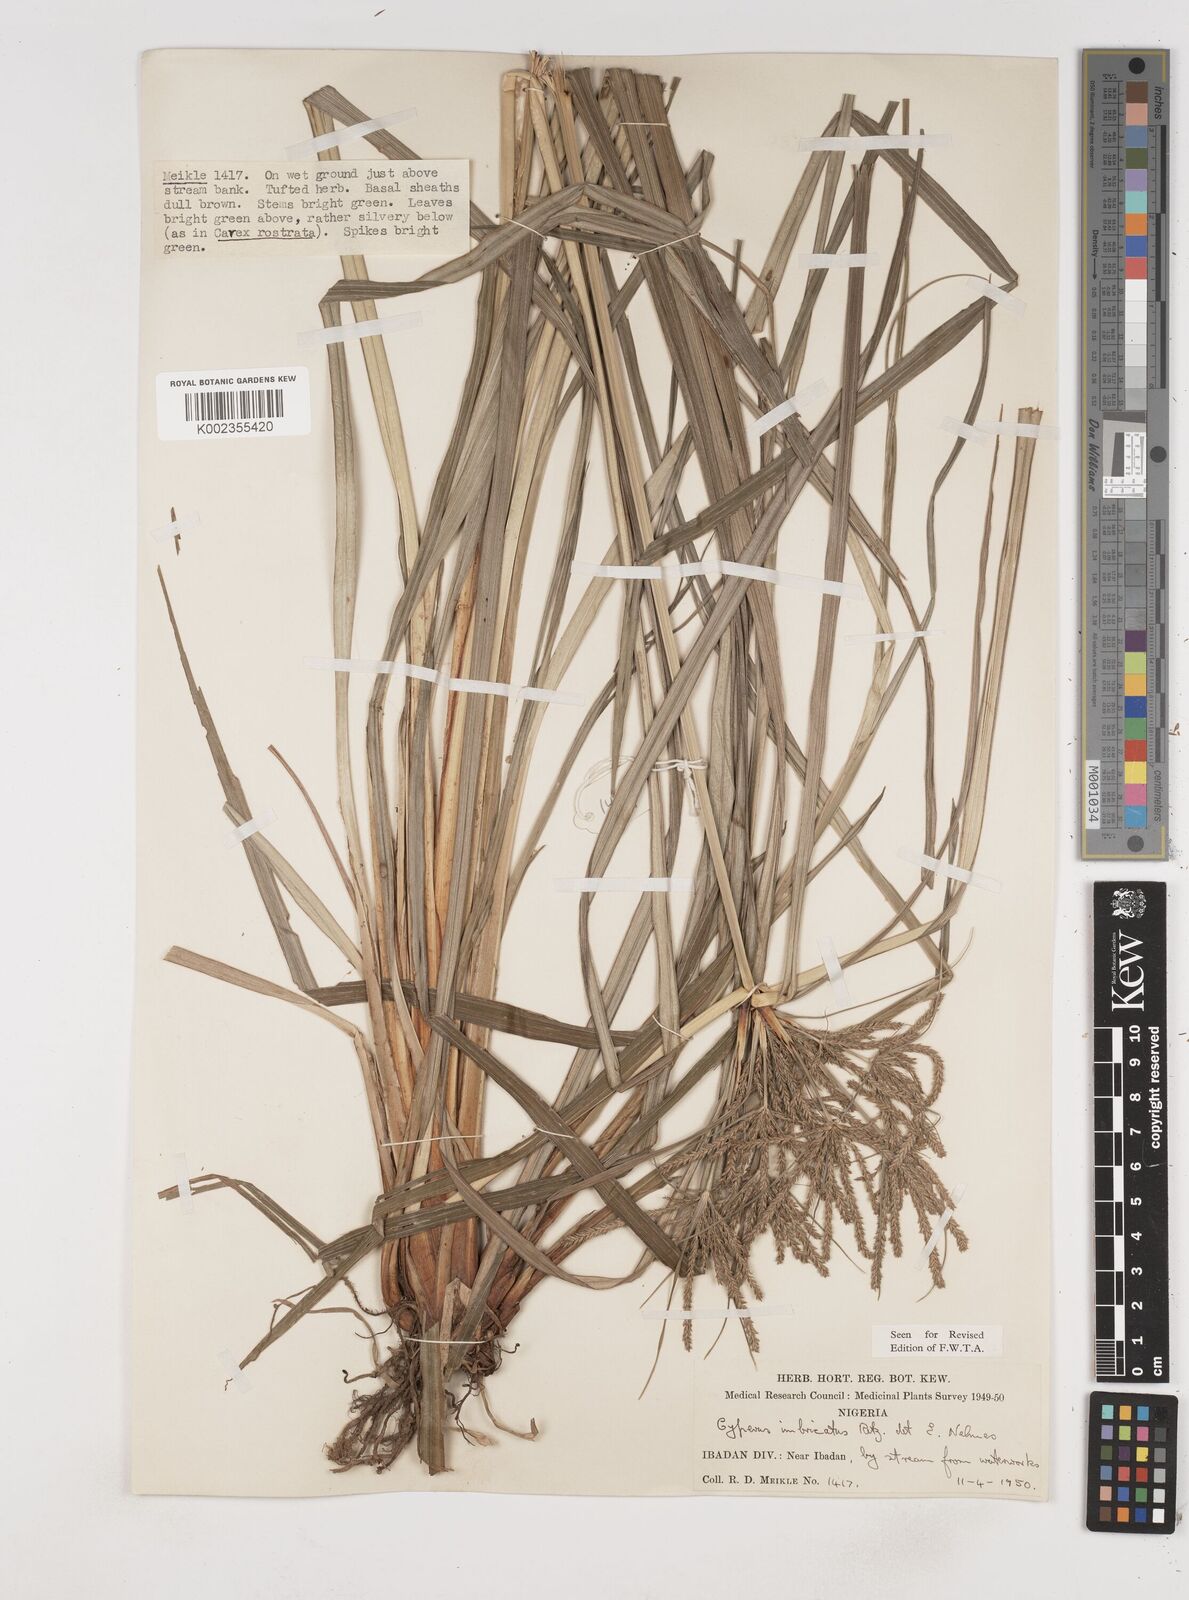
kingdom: Plantae
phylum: Tracheophyta
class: Liliopsida
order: Poales
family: Cyperaceae
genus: Cyperus
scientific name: Cyperus imbricatus
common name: Shingle flatsedge
